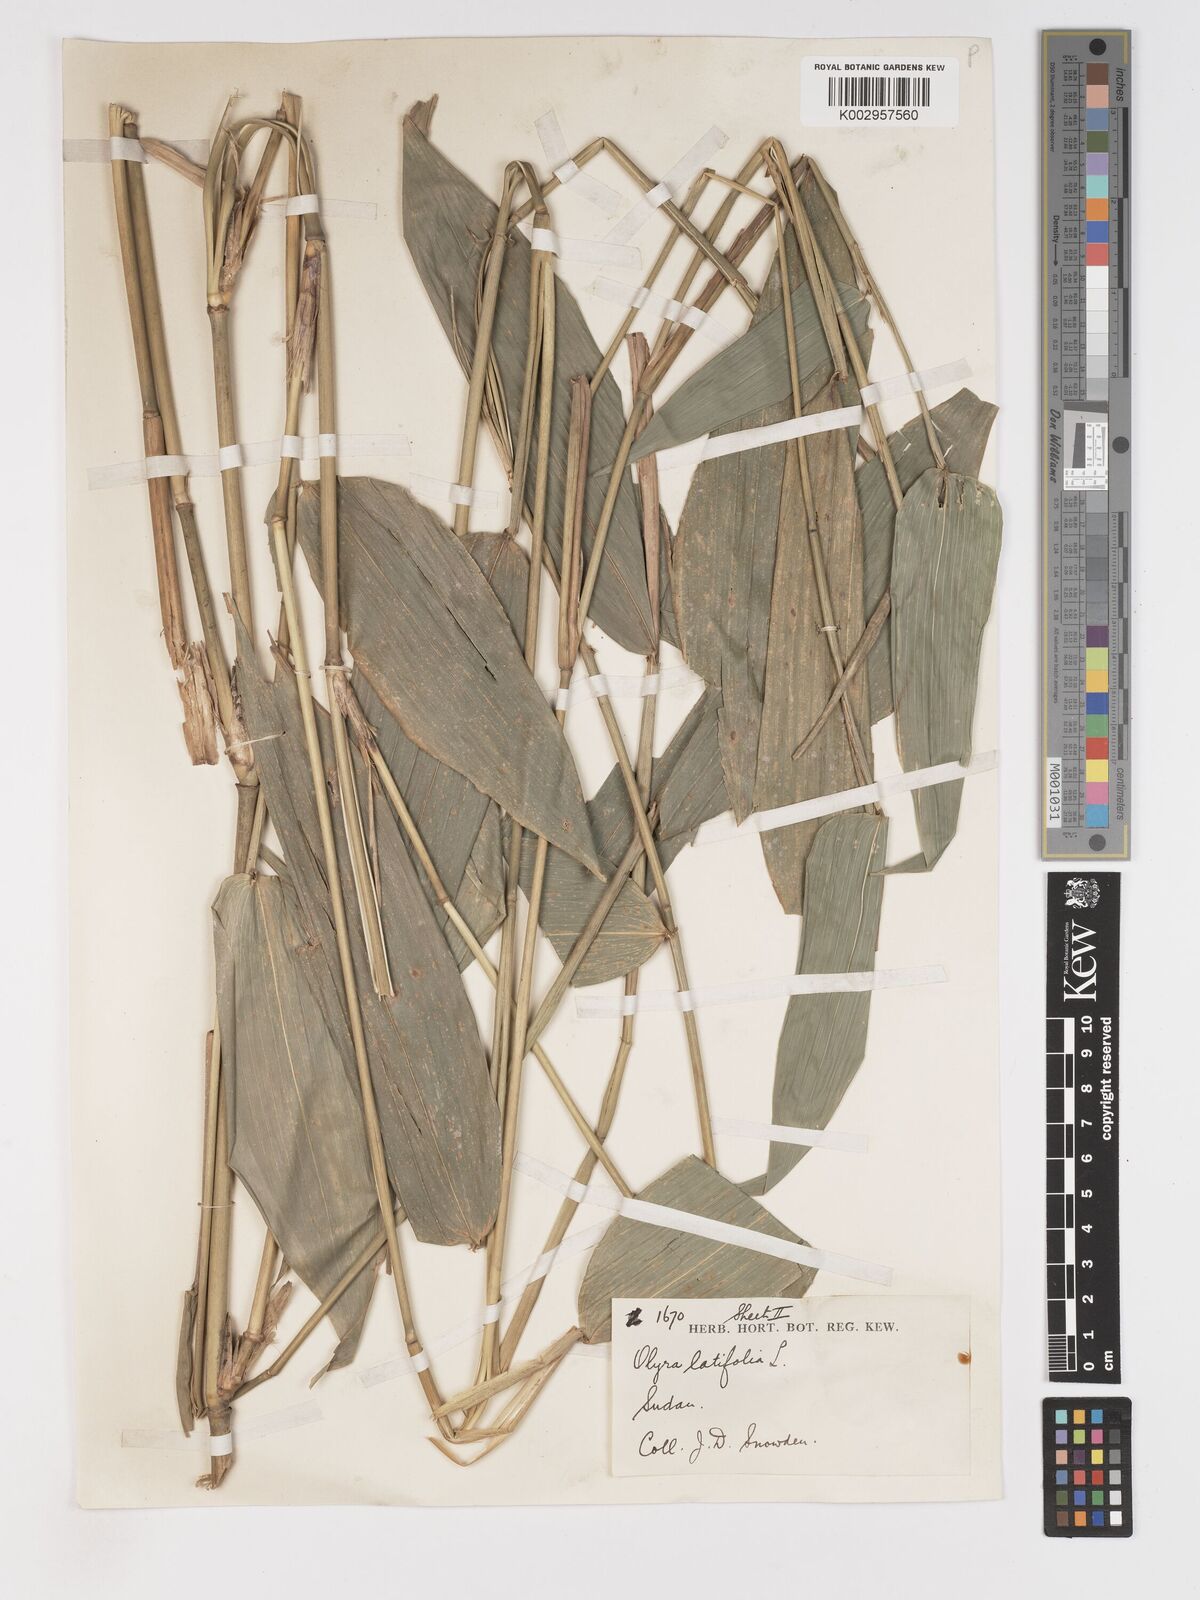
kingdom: Plantae
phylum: Tracheophyta
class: Liliopsida
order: Poales
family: Poaceae
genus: Olyra
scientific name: Olyra latifolia
